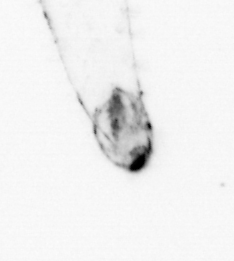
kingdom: Animalia
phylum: Chaetognatha
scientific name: Chaetognatha
